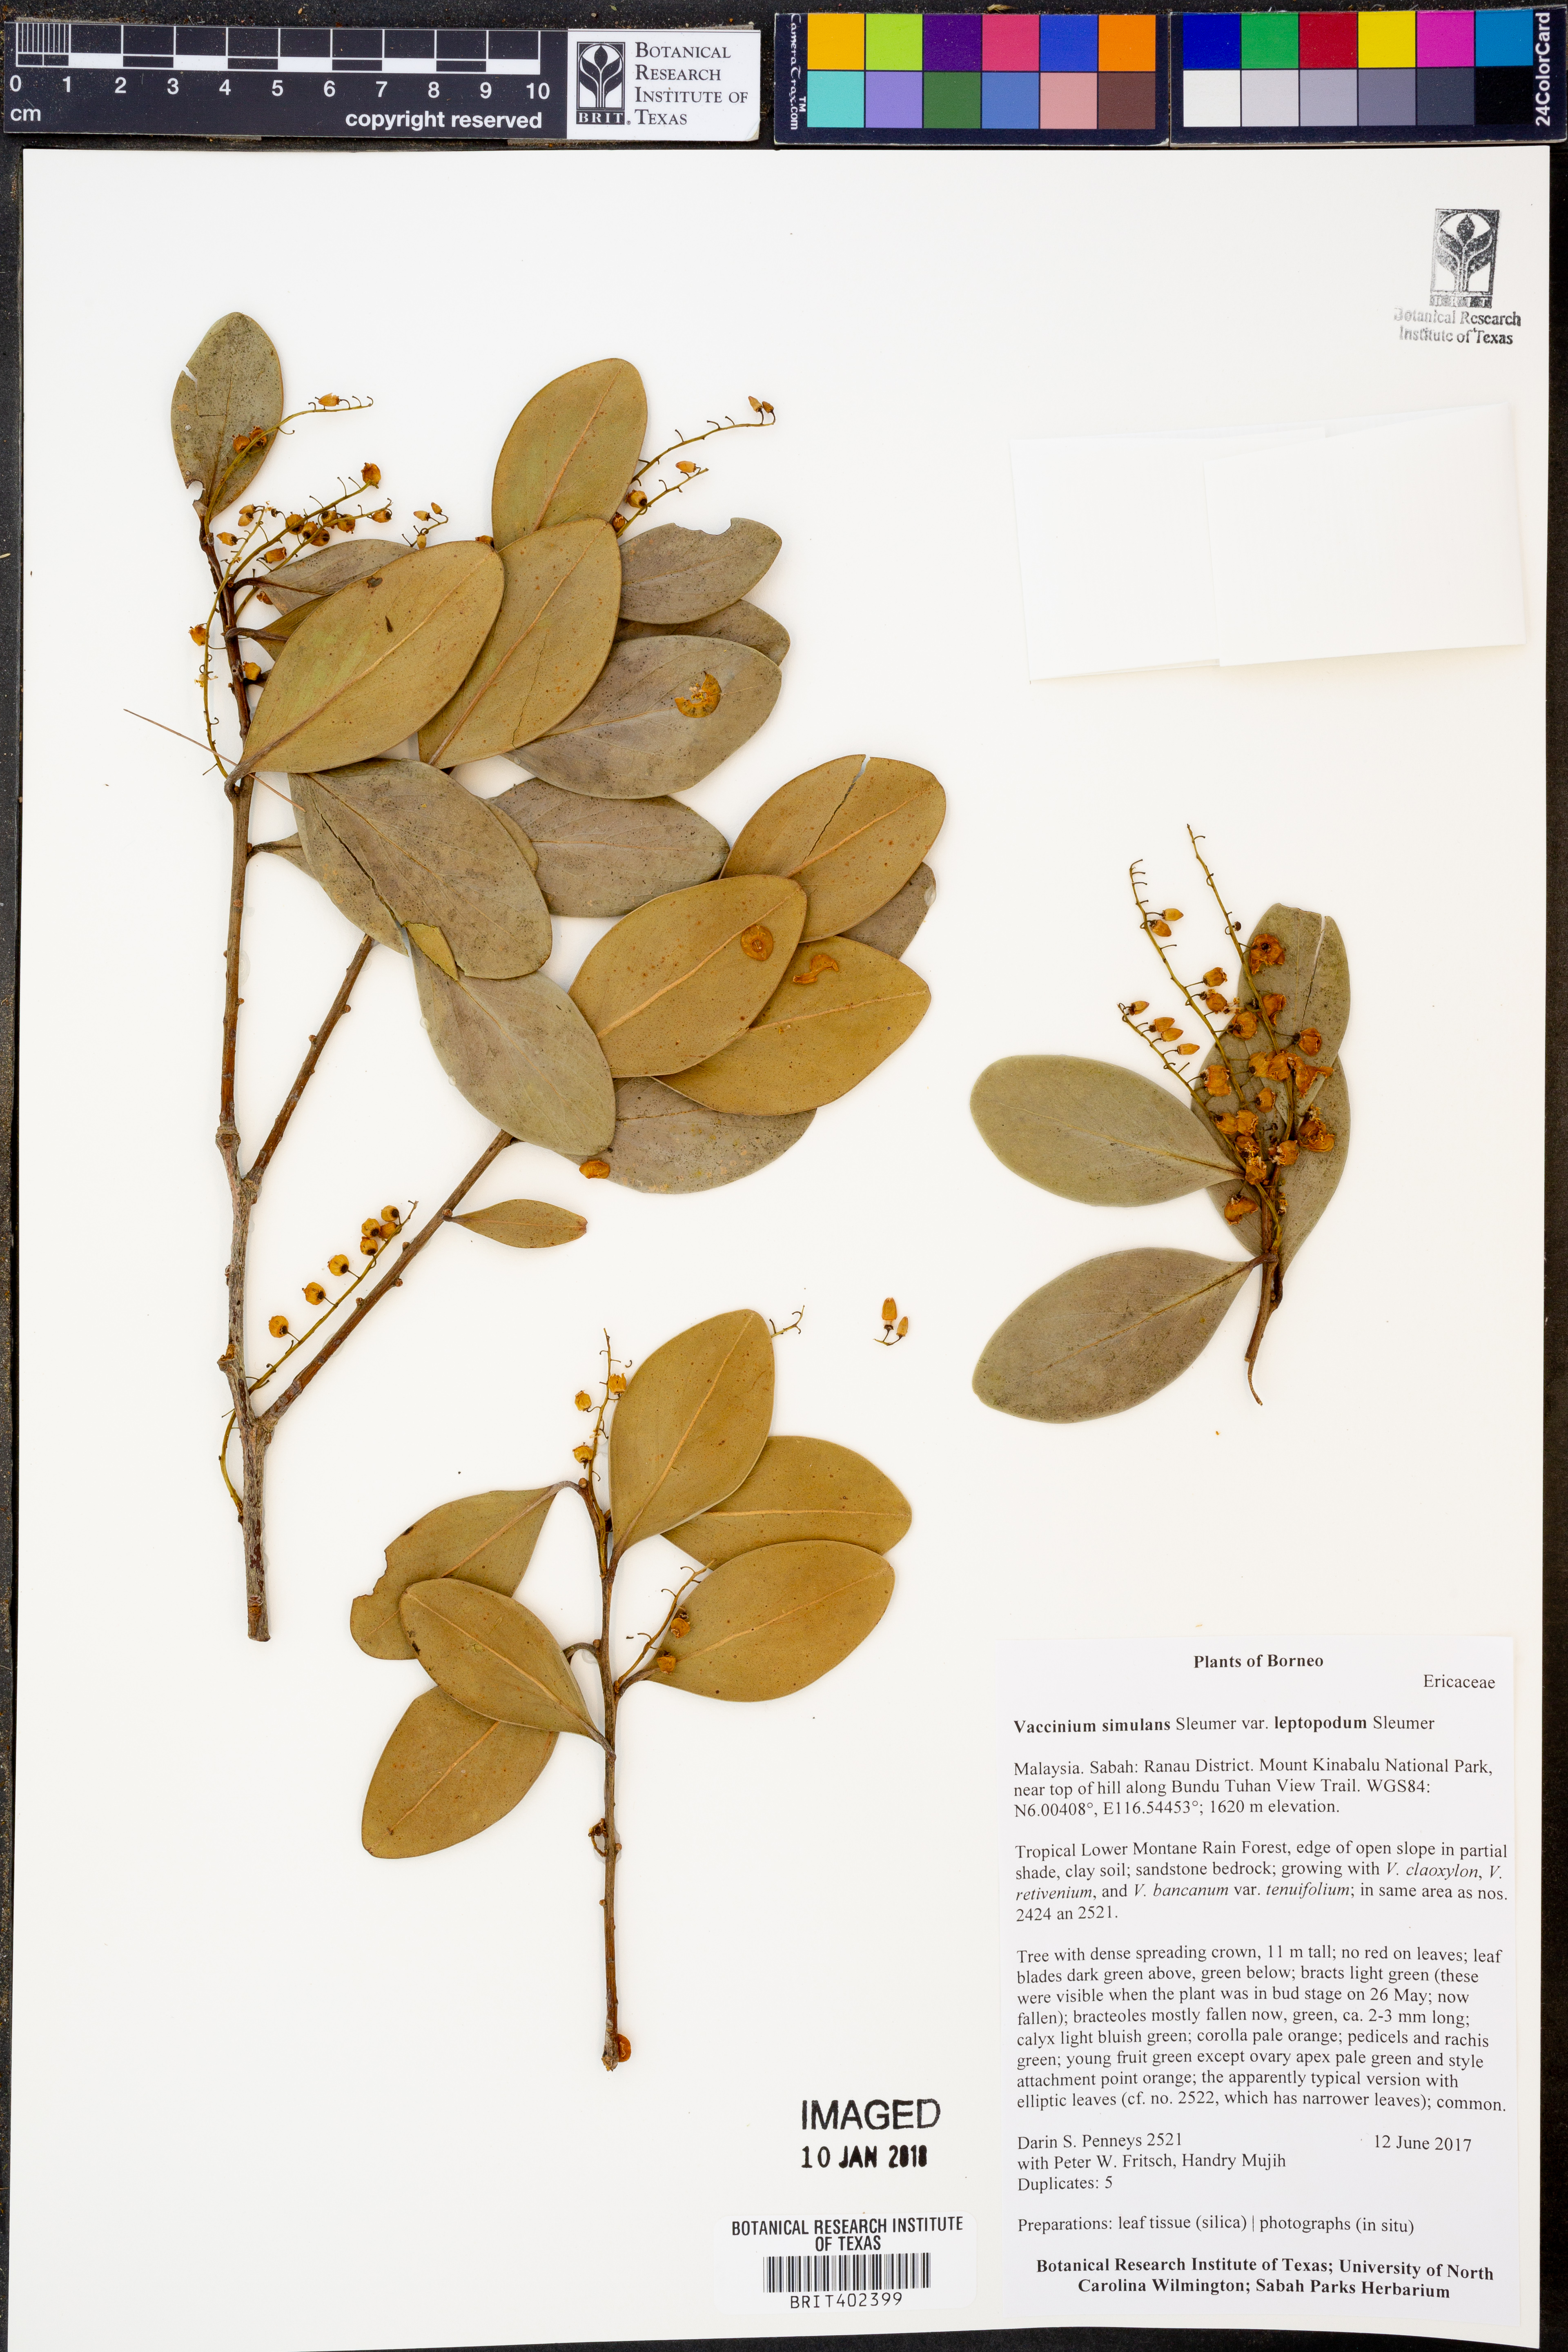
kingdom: Plantae
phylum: Tracheophyta
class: Magnoliopsida
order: Ericales
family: Ericaceae
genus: Vaccinium
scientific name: Vaccinium simulans
